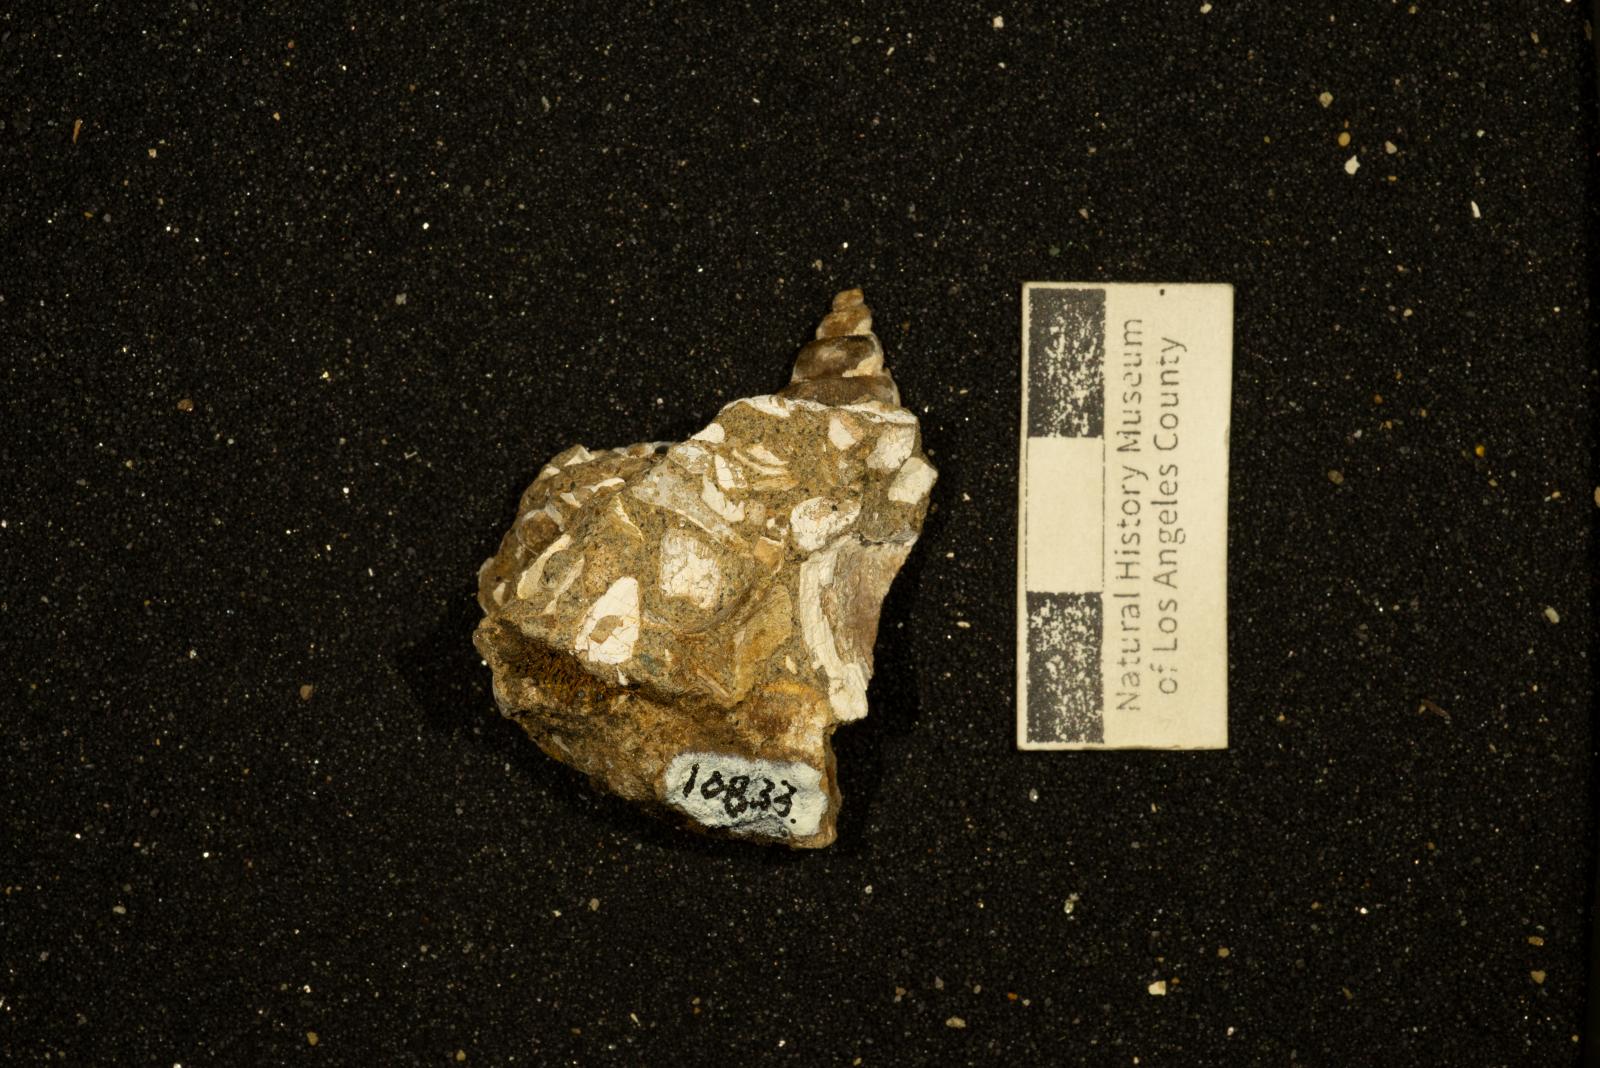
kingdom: Animalia
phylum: Mollusca
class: Gastropoda
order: Neogastropoda
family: Melongenidae
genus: Deussenia
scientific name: Deussenia
